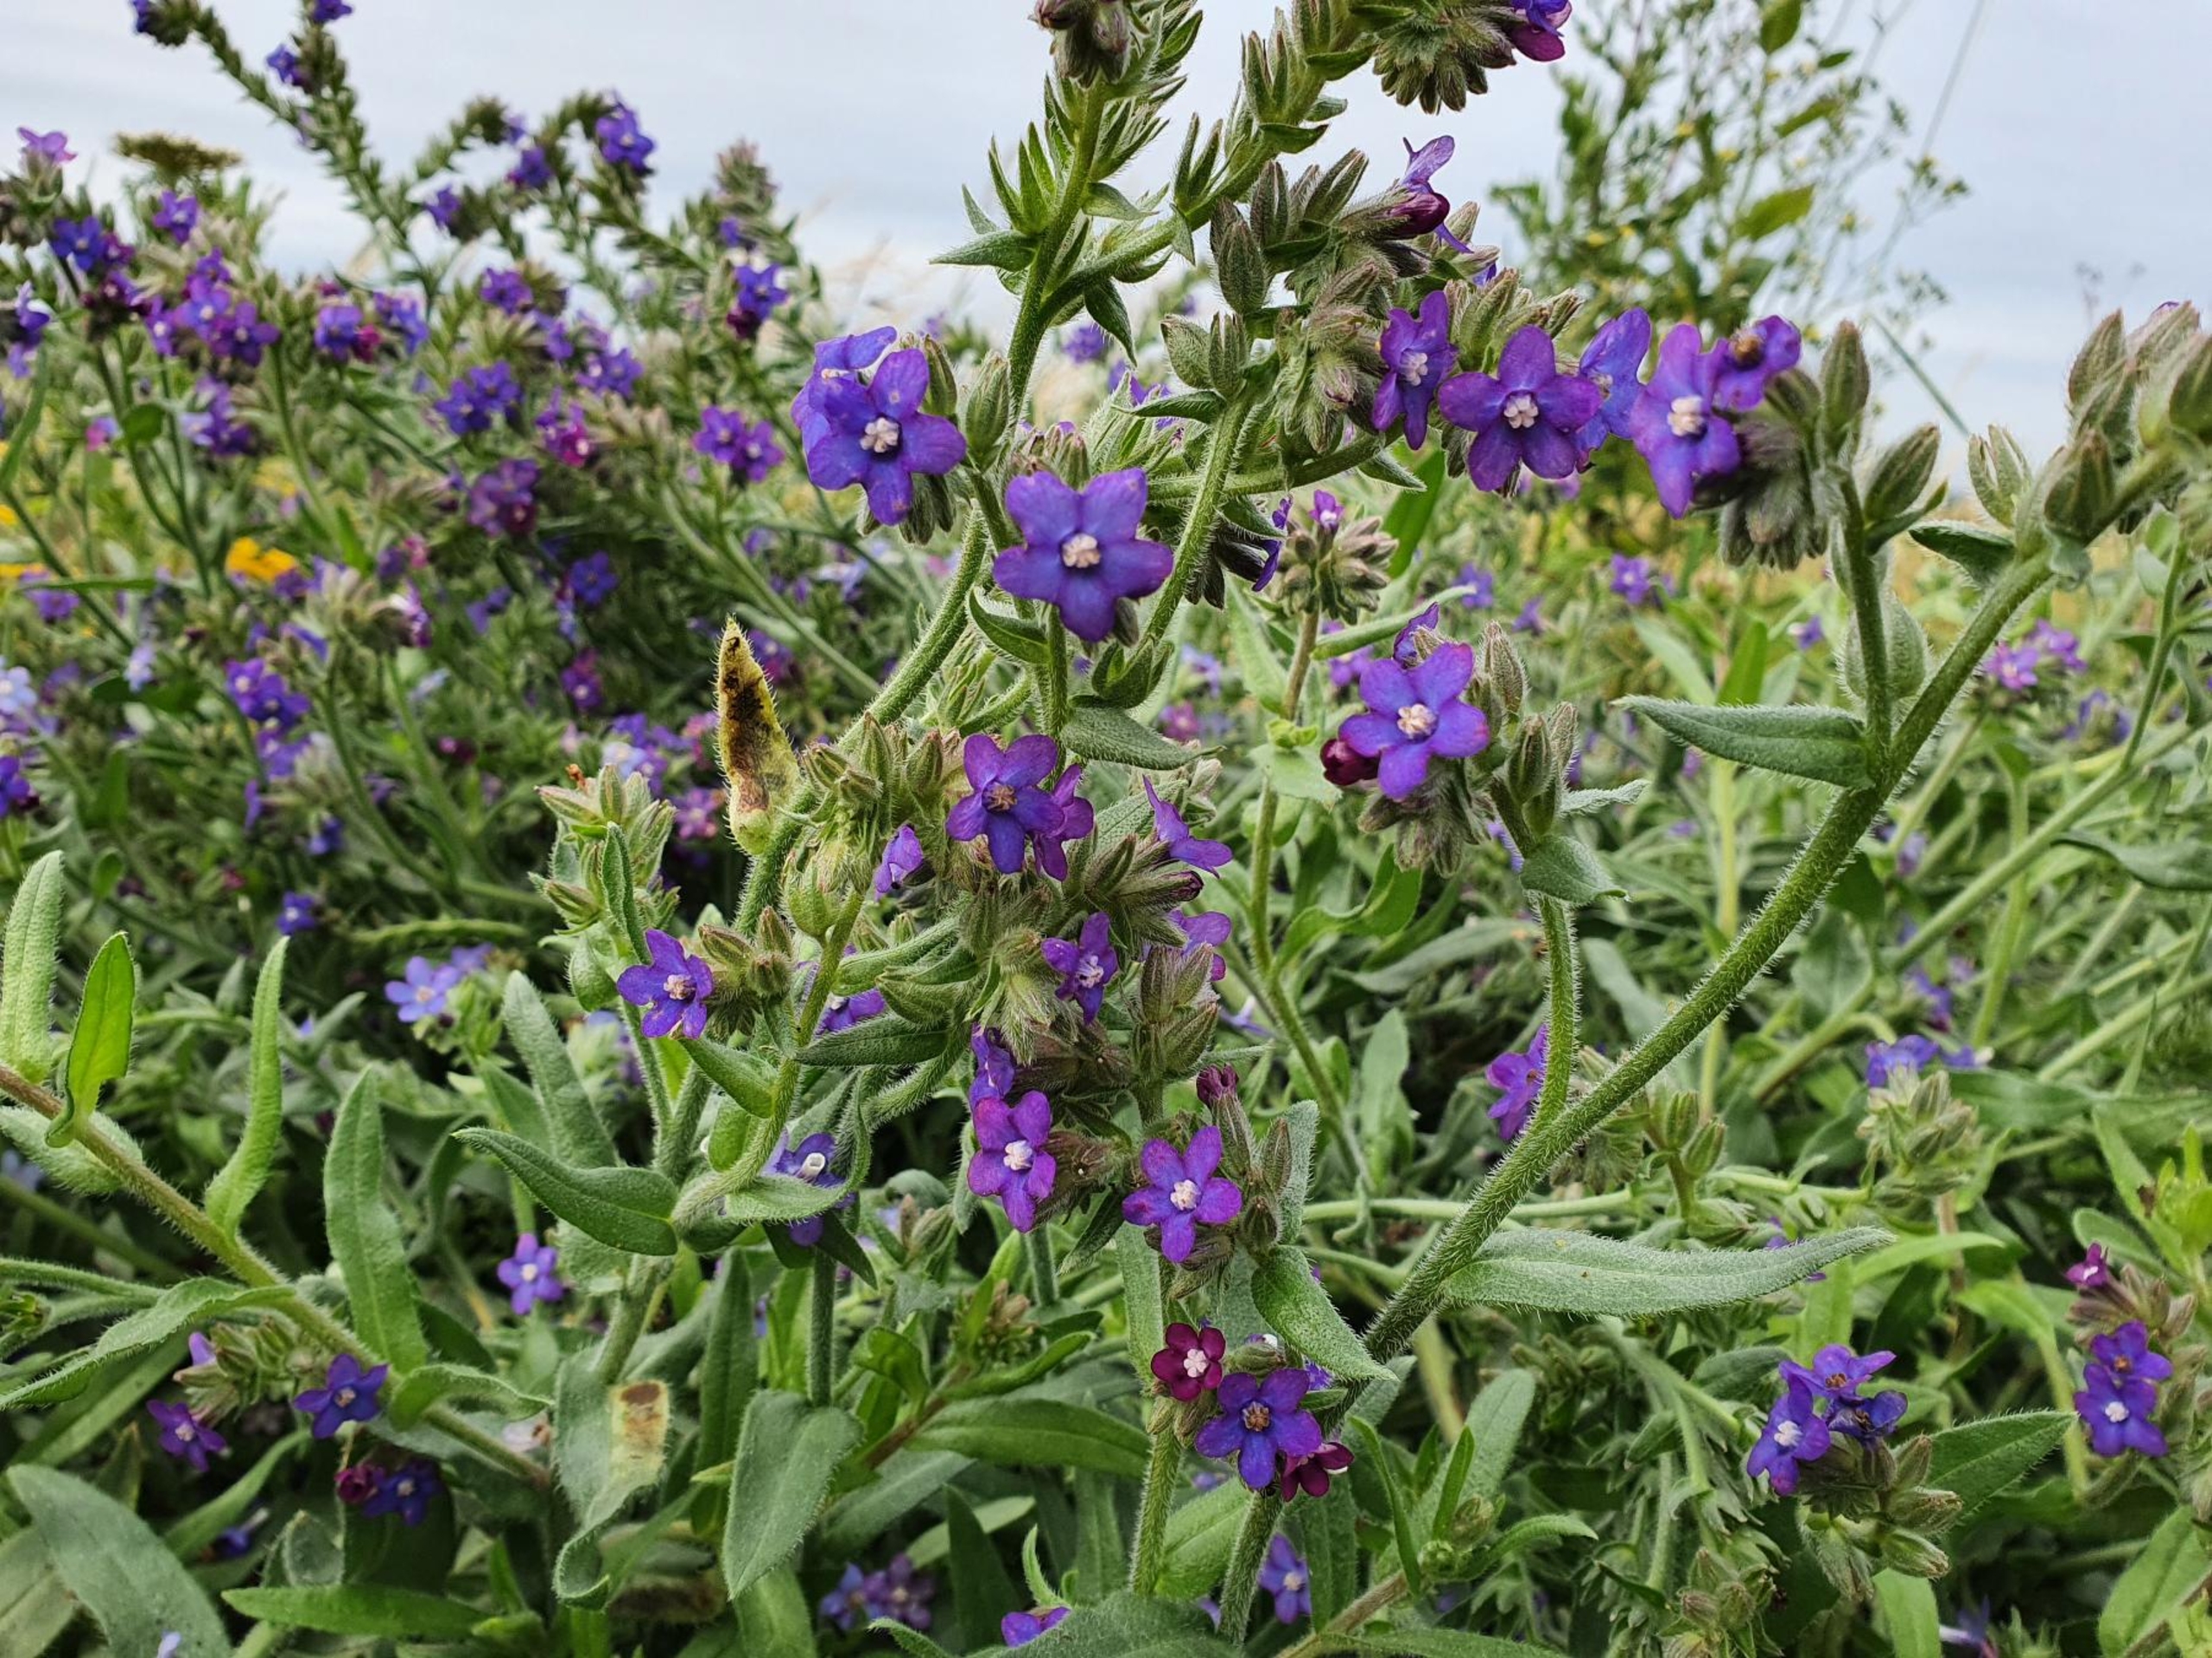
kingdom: Plantae
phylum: Tracheophyta
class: Magnoliopsida
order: Boraginales
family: Boraginaceae
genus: Anchusa
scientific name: Anchusa officinalis
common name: Læge-oksetunge
